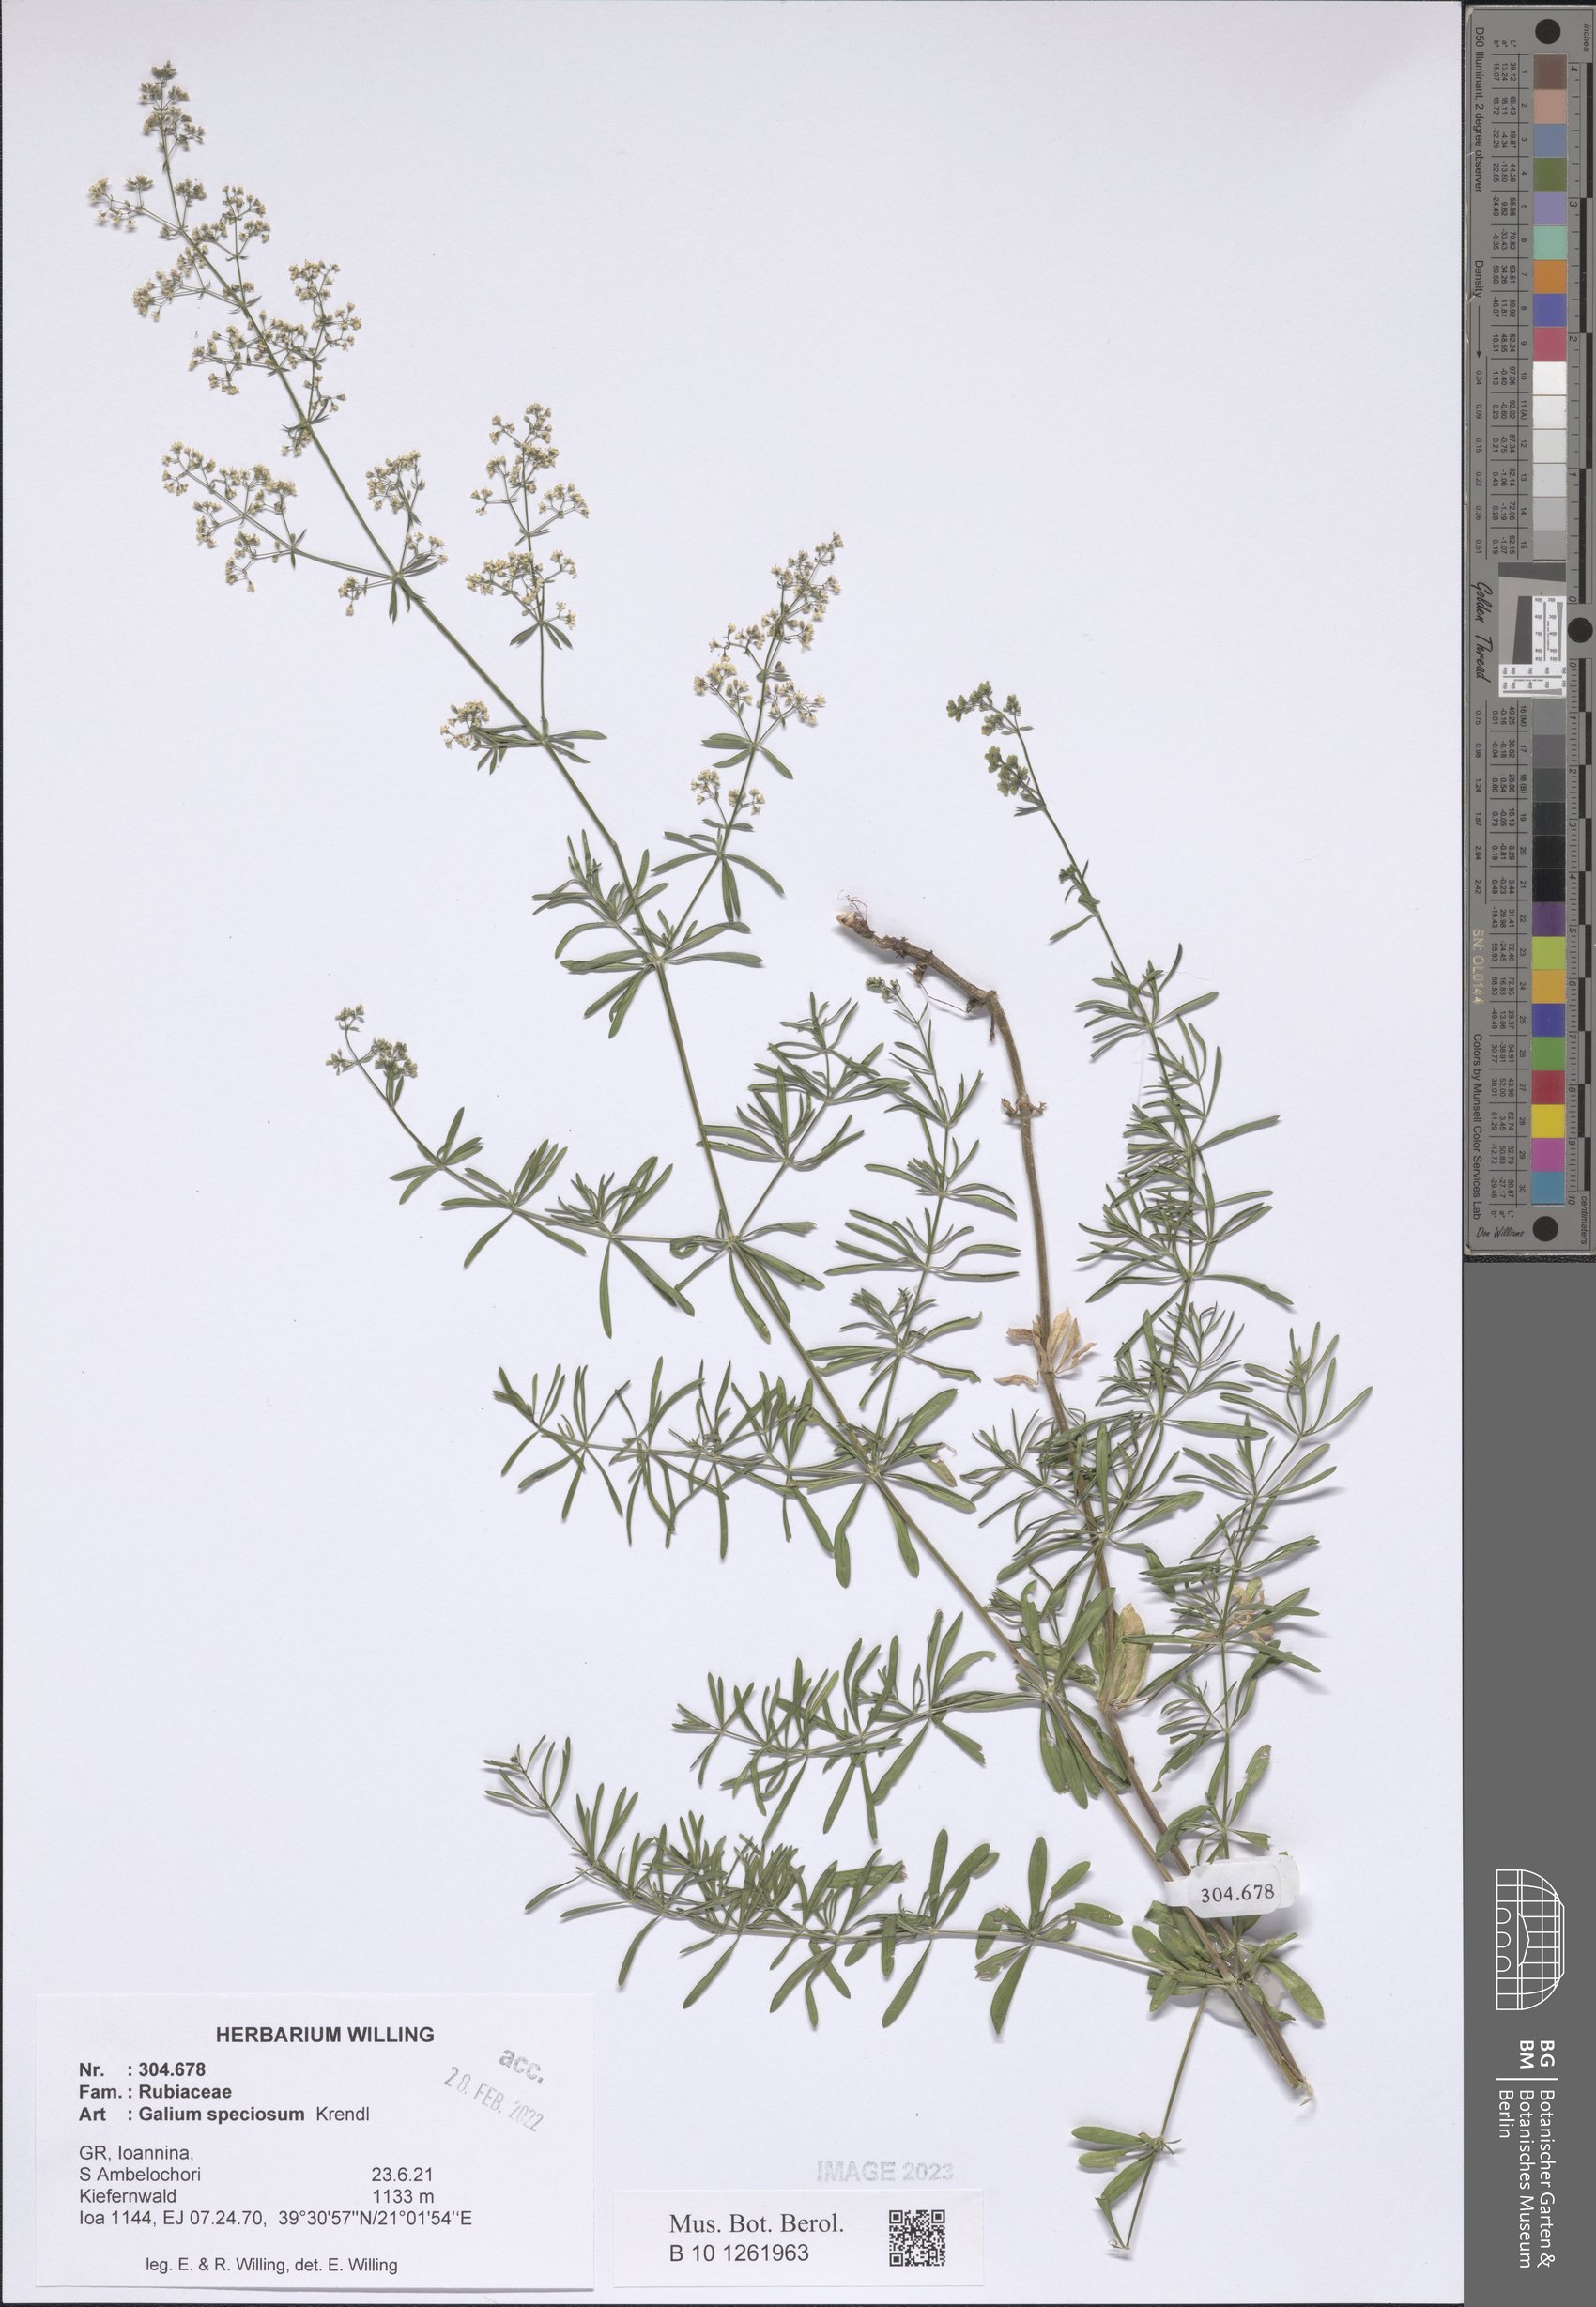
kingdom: Plantae
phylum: Tracheophyta
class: Magnoliopsida
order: Gentianales
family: Rubiaceae
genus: Galium
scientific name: Galium speciosum
